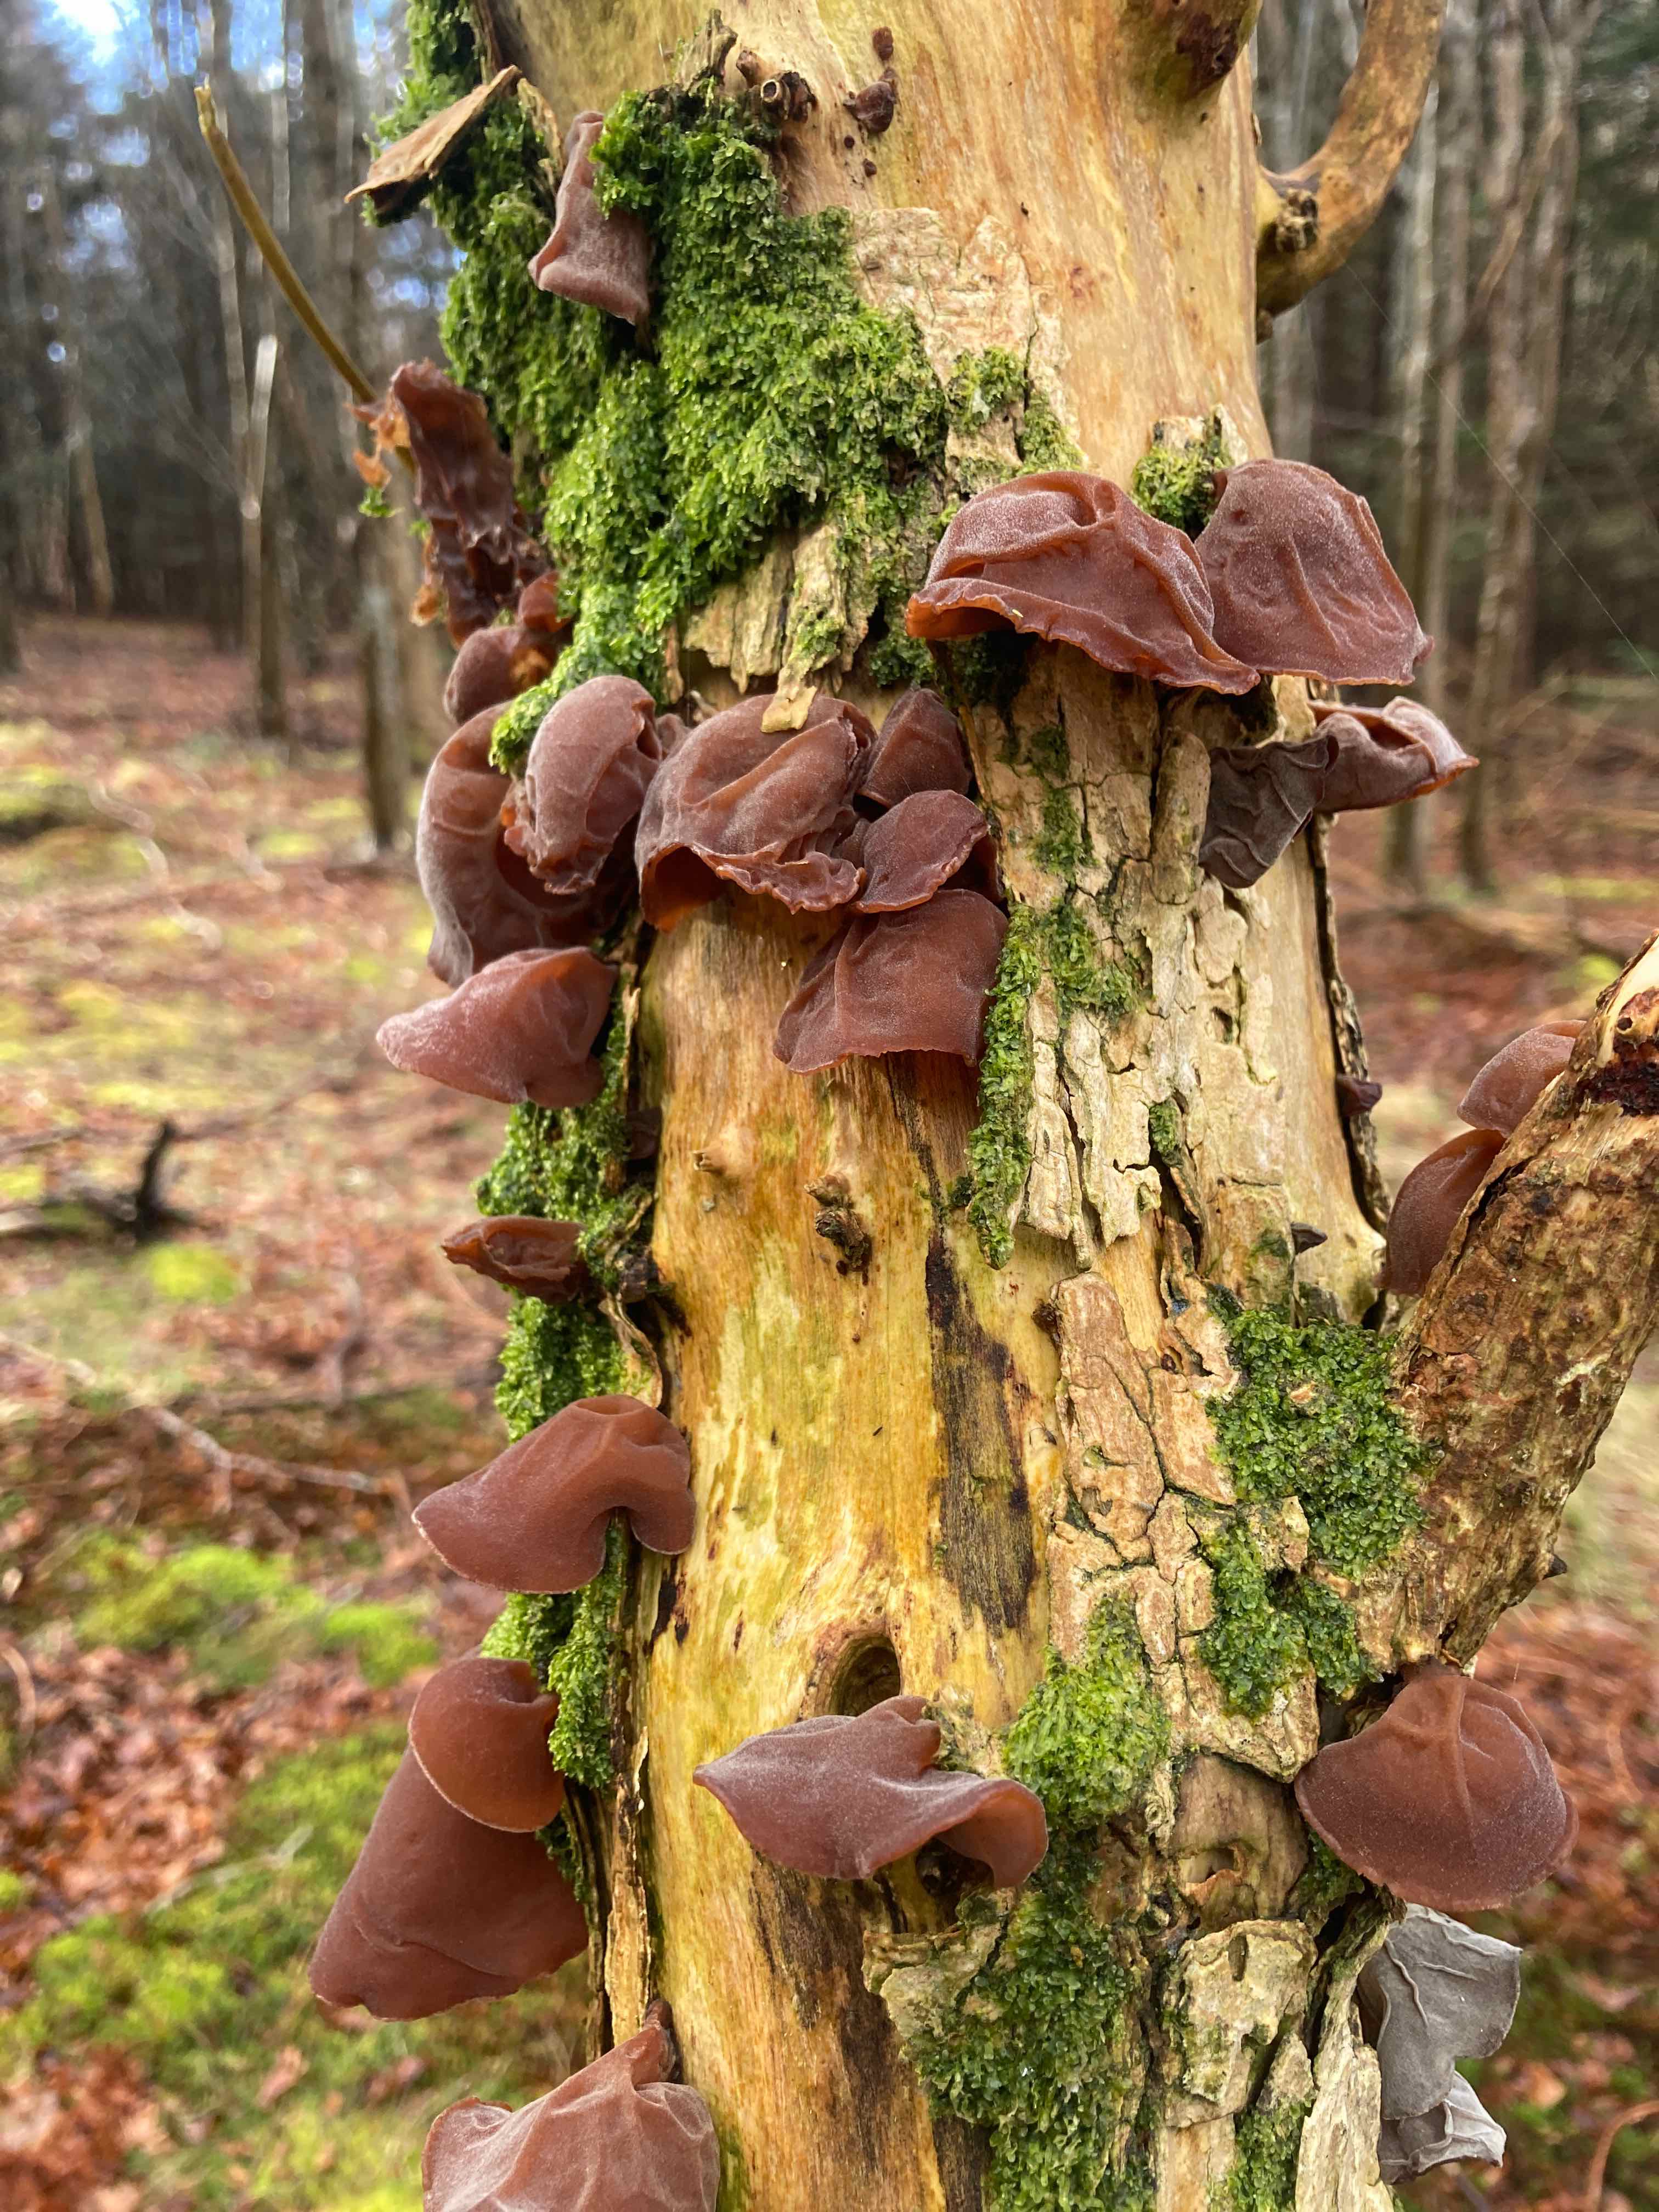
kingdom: Fungi
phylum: Basidiomycota
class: Agaricomycetes
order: Auriculariales
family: Auriculariaceae
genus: Auricularia
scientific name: Auricularia auricula-judae
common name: almindelig judasøre
